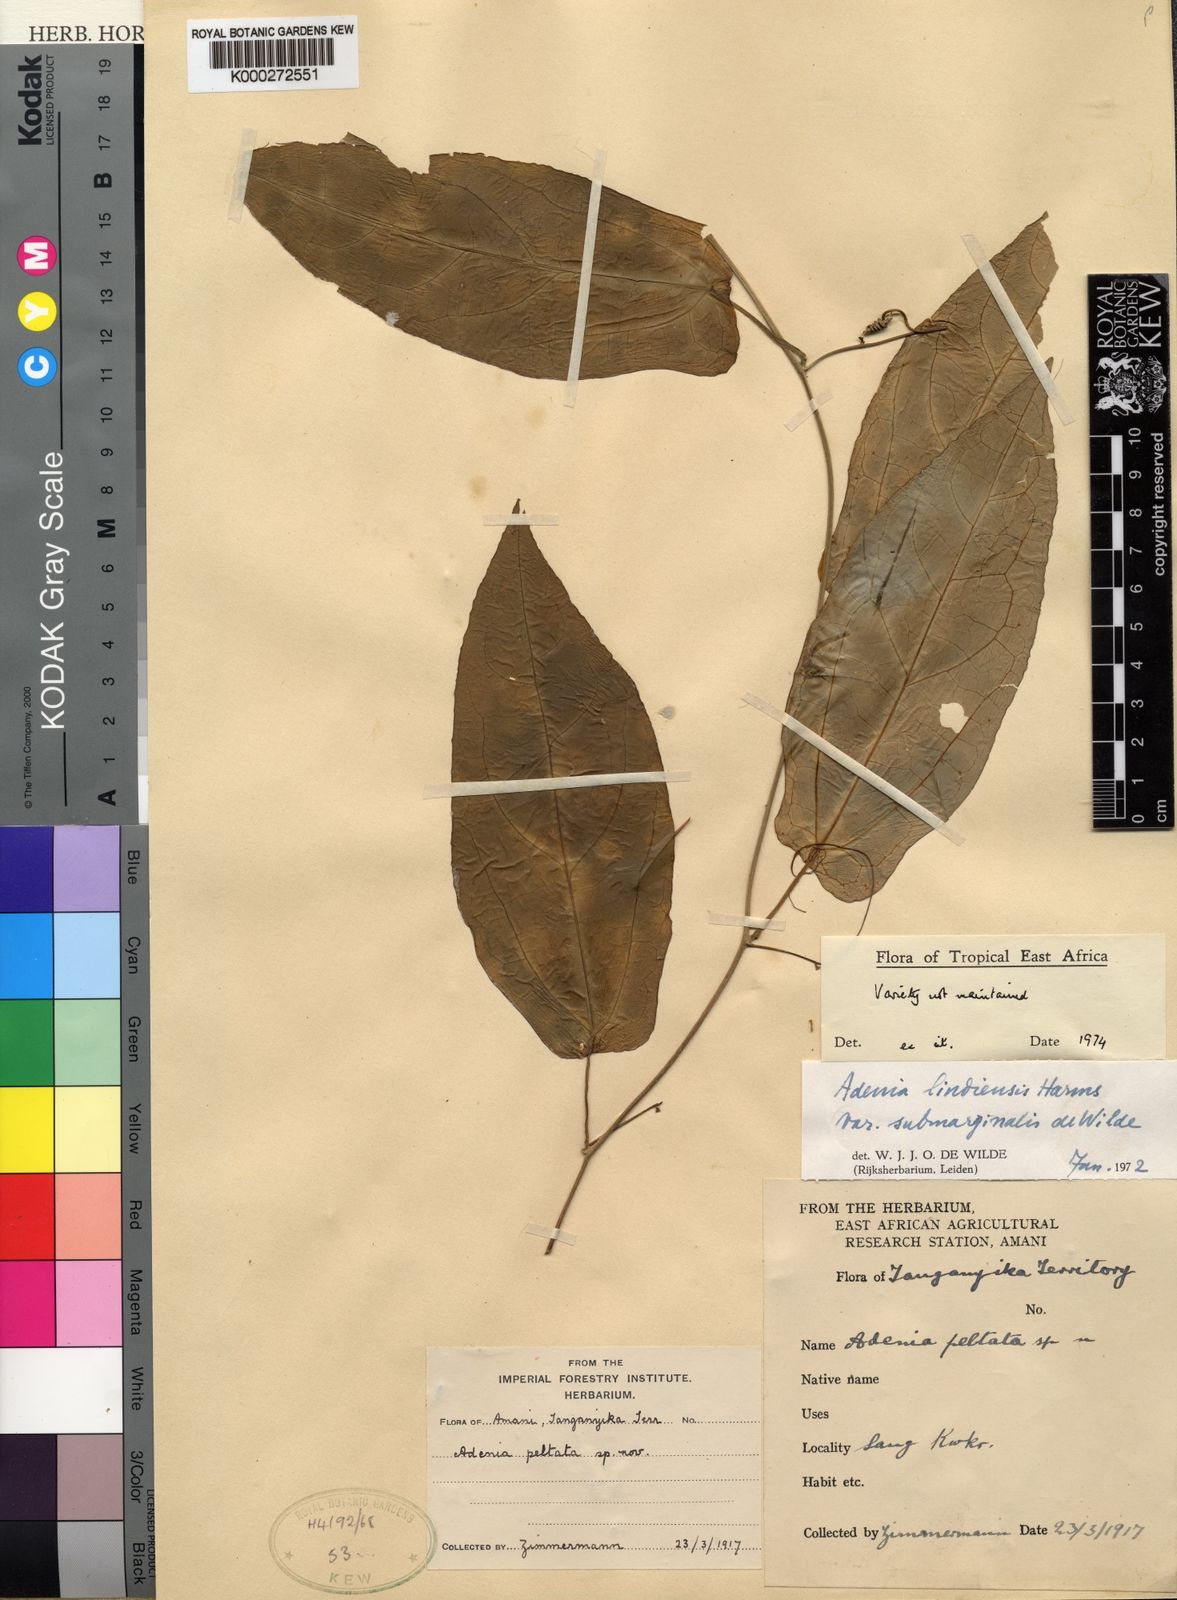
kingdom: Plantae
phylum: Tracheophyta
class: Magnoliopsida
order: Malpighiales
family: Passifloraceae
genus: Adenia
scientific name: Adenia lindiensis
